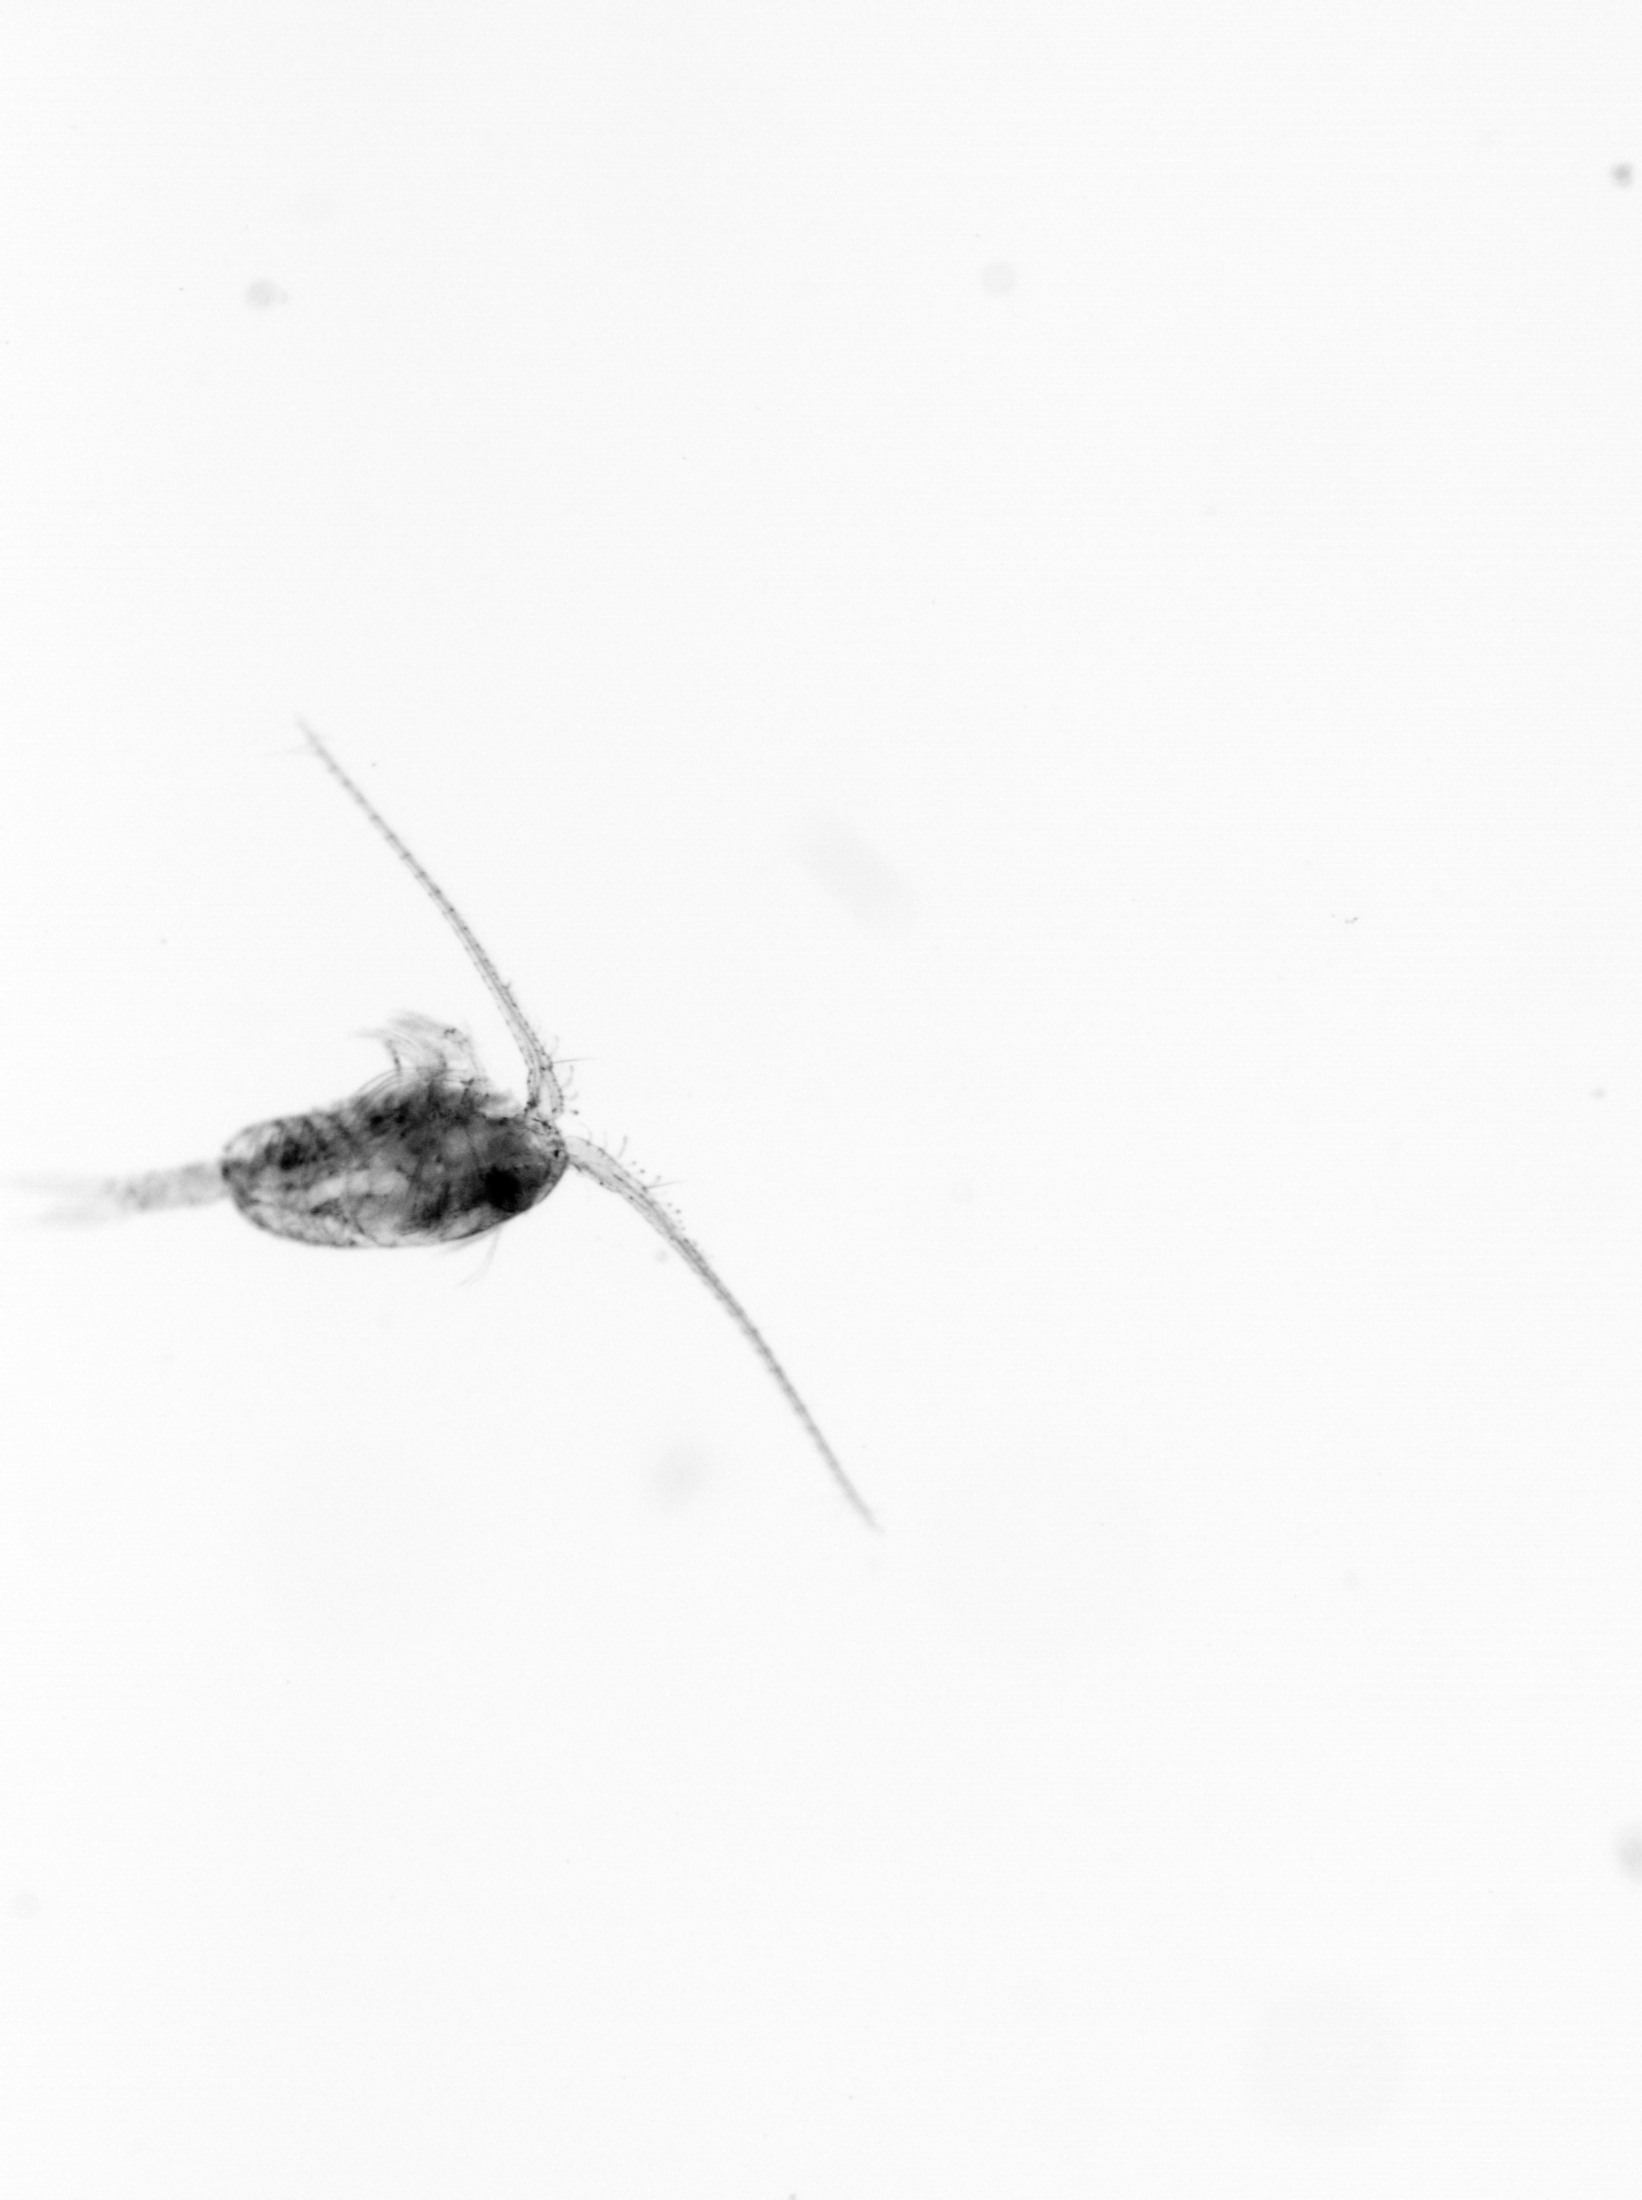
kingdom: Animalia
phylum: Arthropoda
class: Copepoda
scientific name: Copepoda
